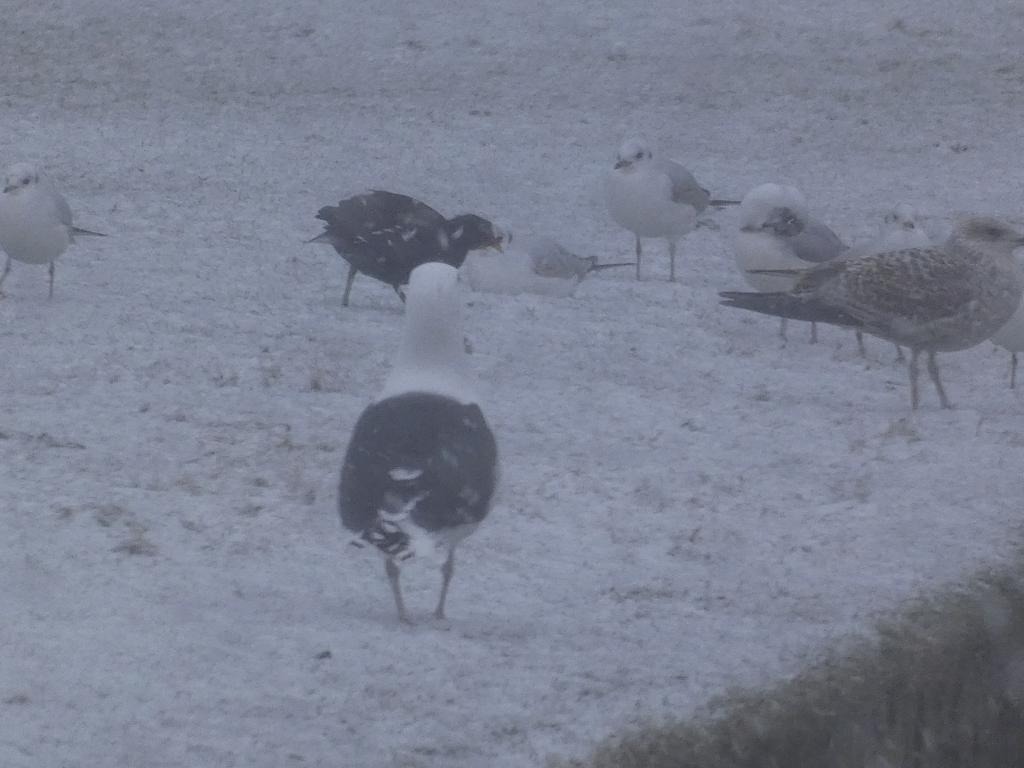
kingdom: Animalia
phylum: Chordata
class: Aves
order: Charadriiformes
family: Laridae
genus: Larus
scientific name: Larus marinus
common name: Svartbag
